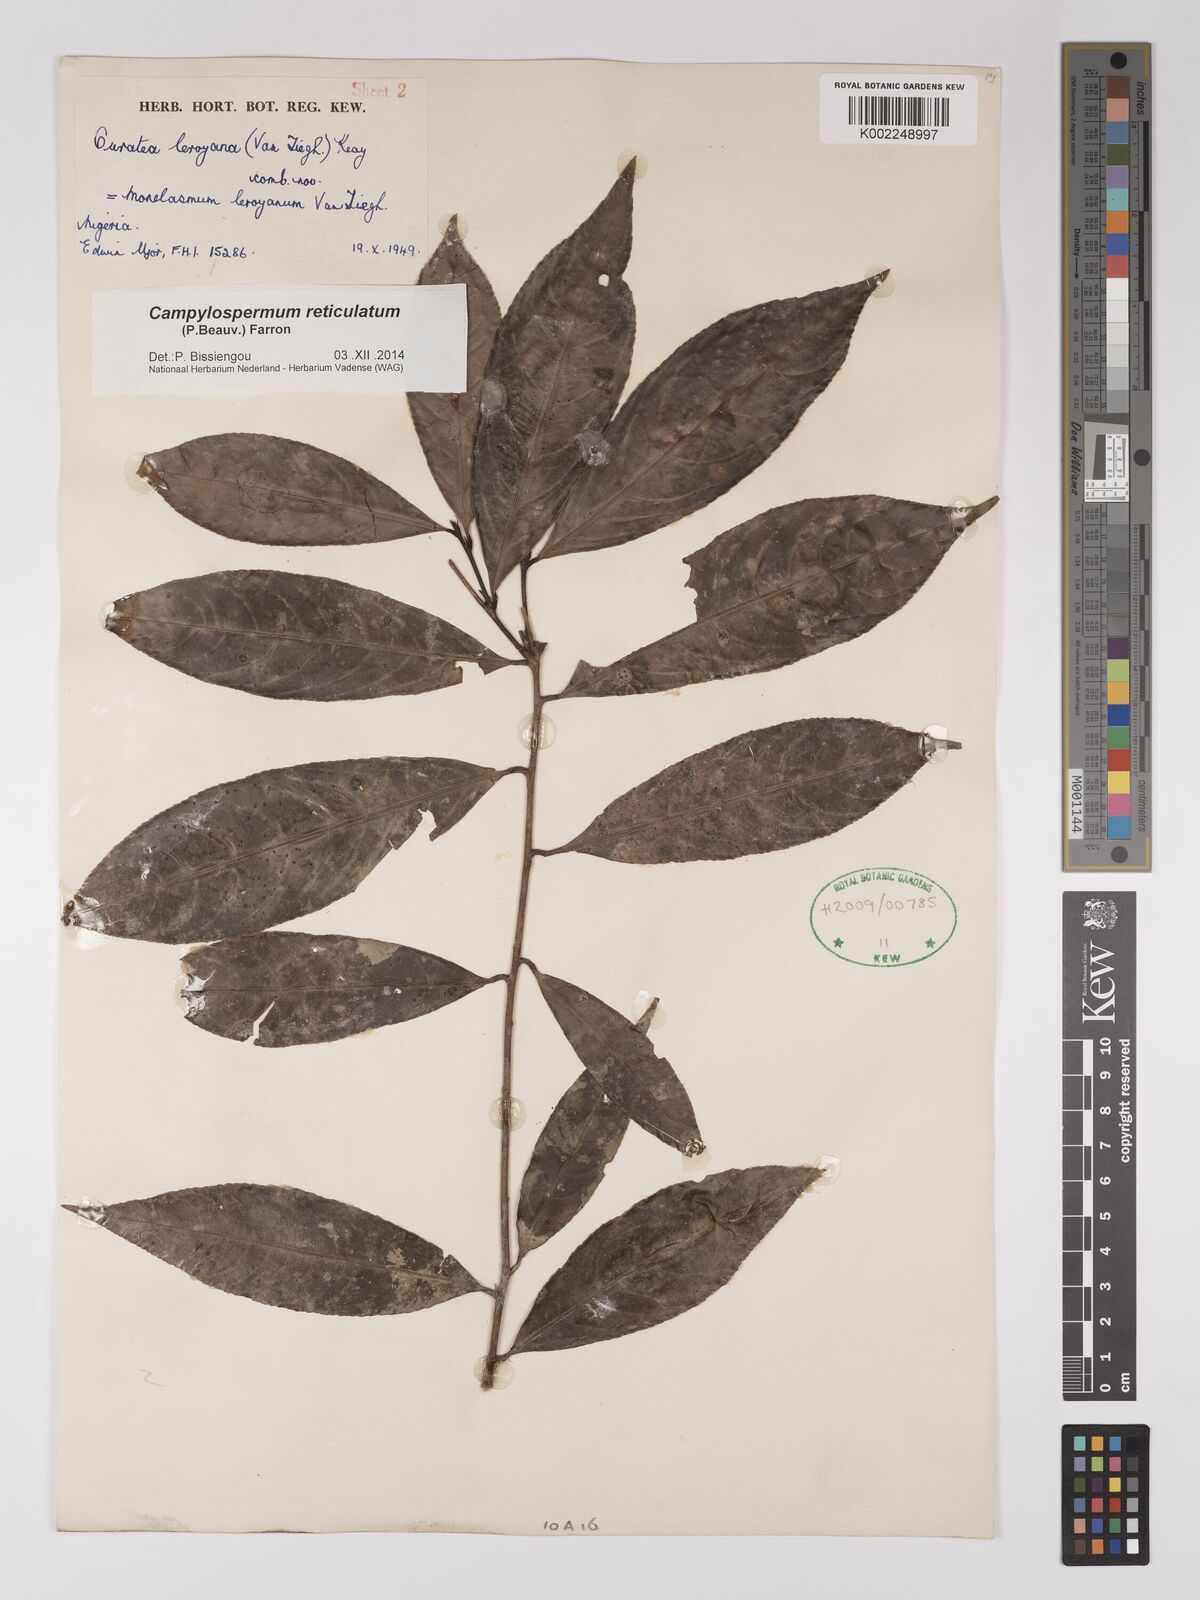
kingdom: Plantae
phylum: Tracheophyta
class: Magnoliopsida
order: Malpighiales
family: Ochnaceae
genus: Campylospermum
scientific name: Campylospermum reticulatum
